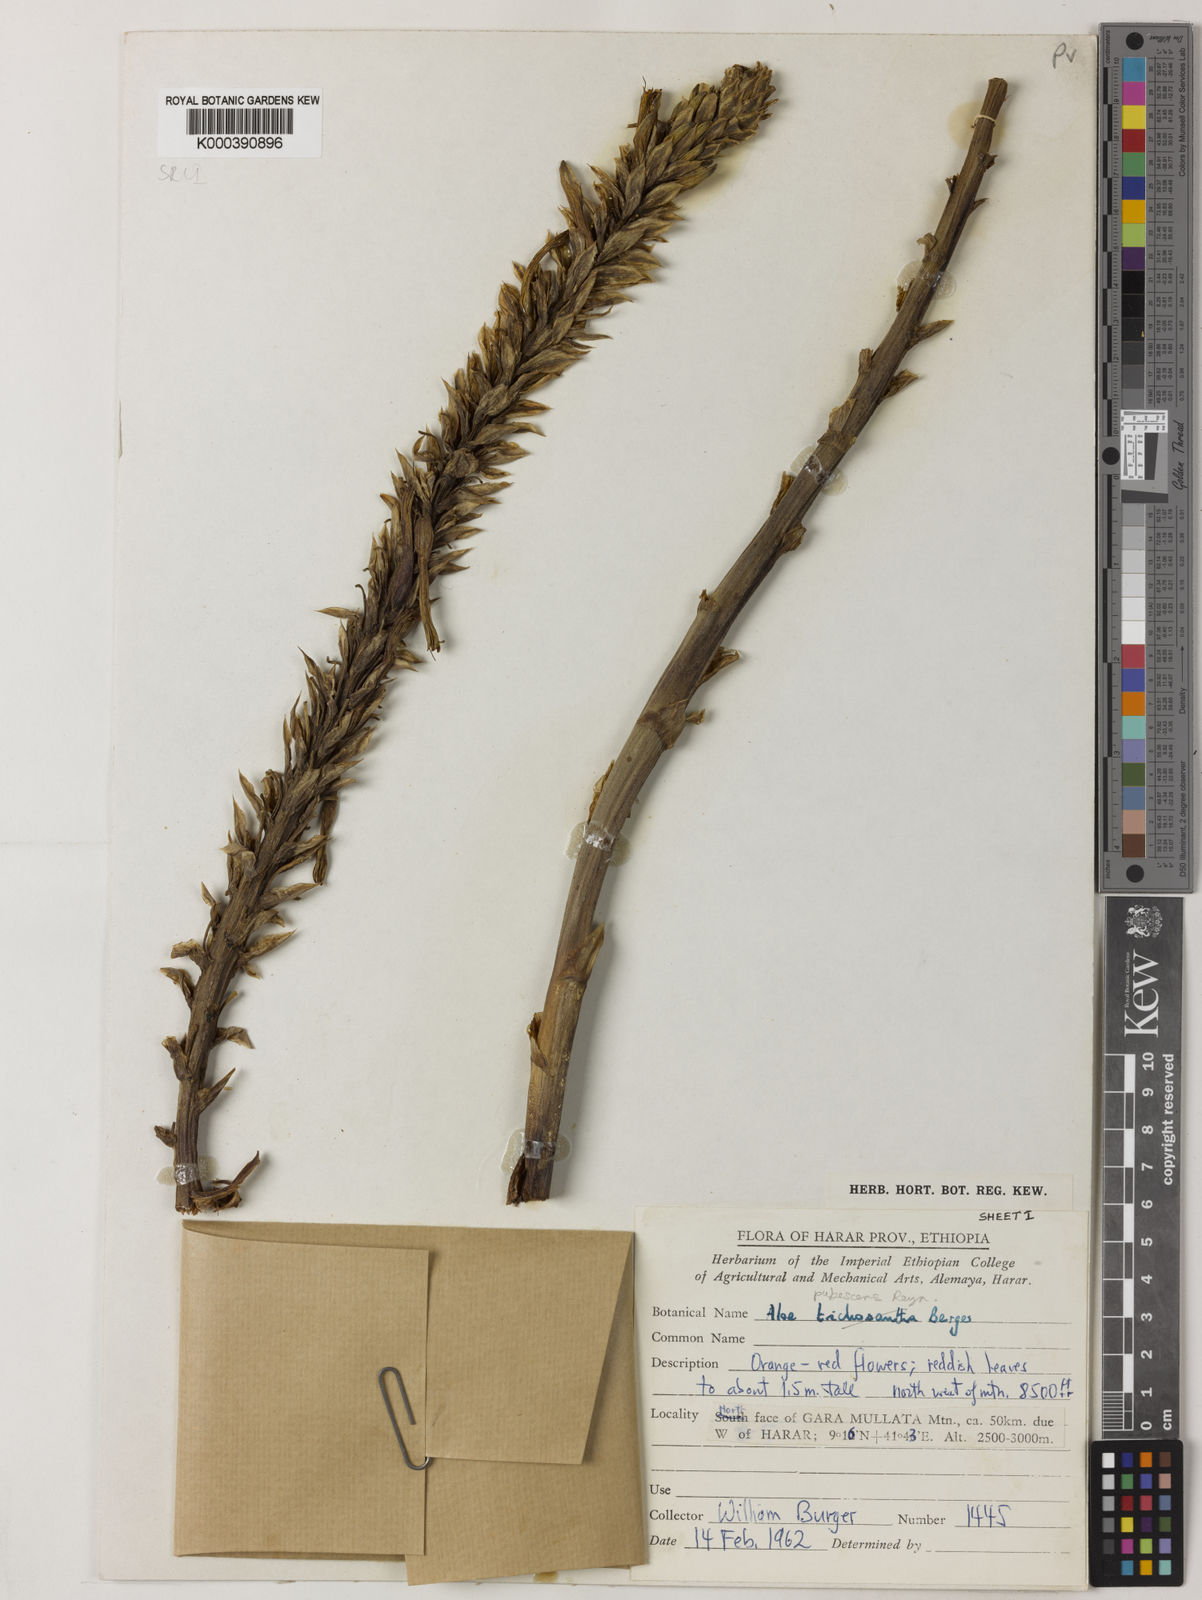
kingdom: Plantae
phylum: Tracheophyta
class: Liliopsida
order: Asparagales
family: Asphodelaceae
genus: Aloe
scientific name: Aloe pubescens
